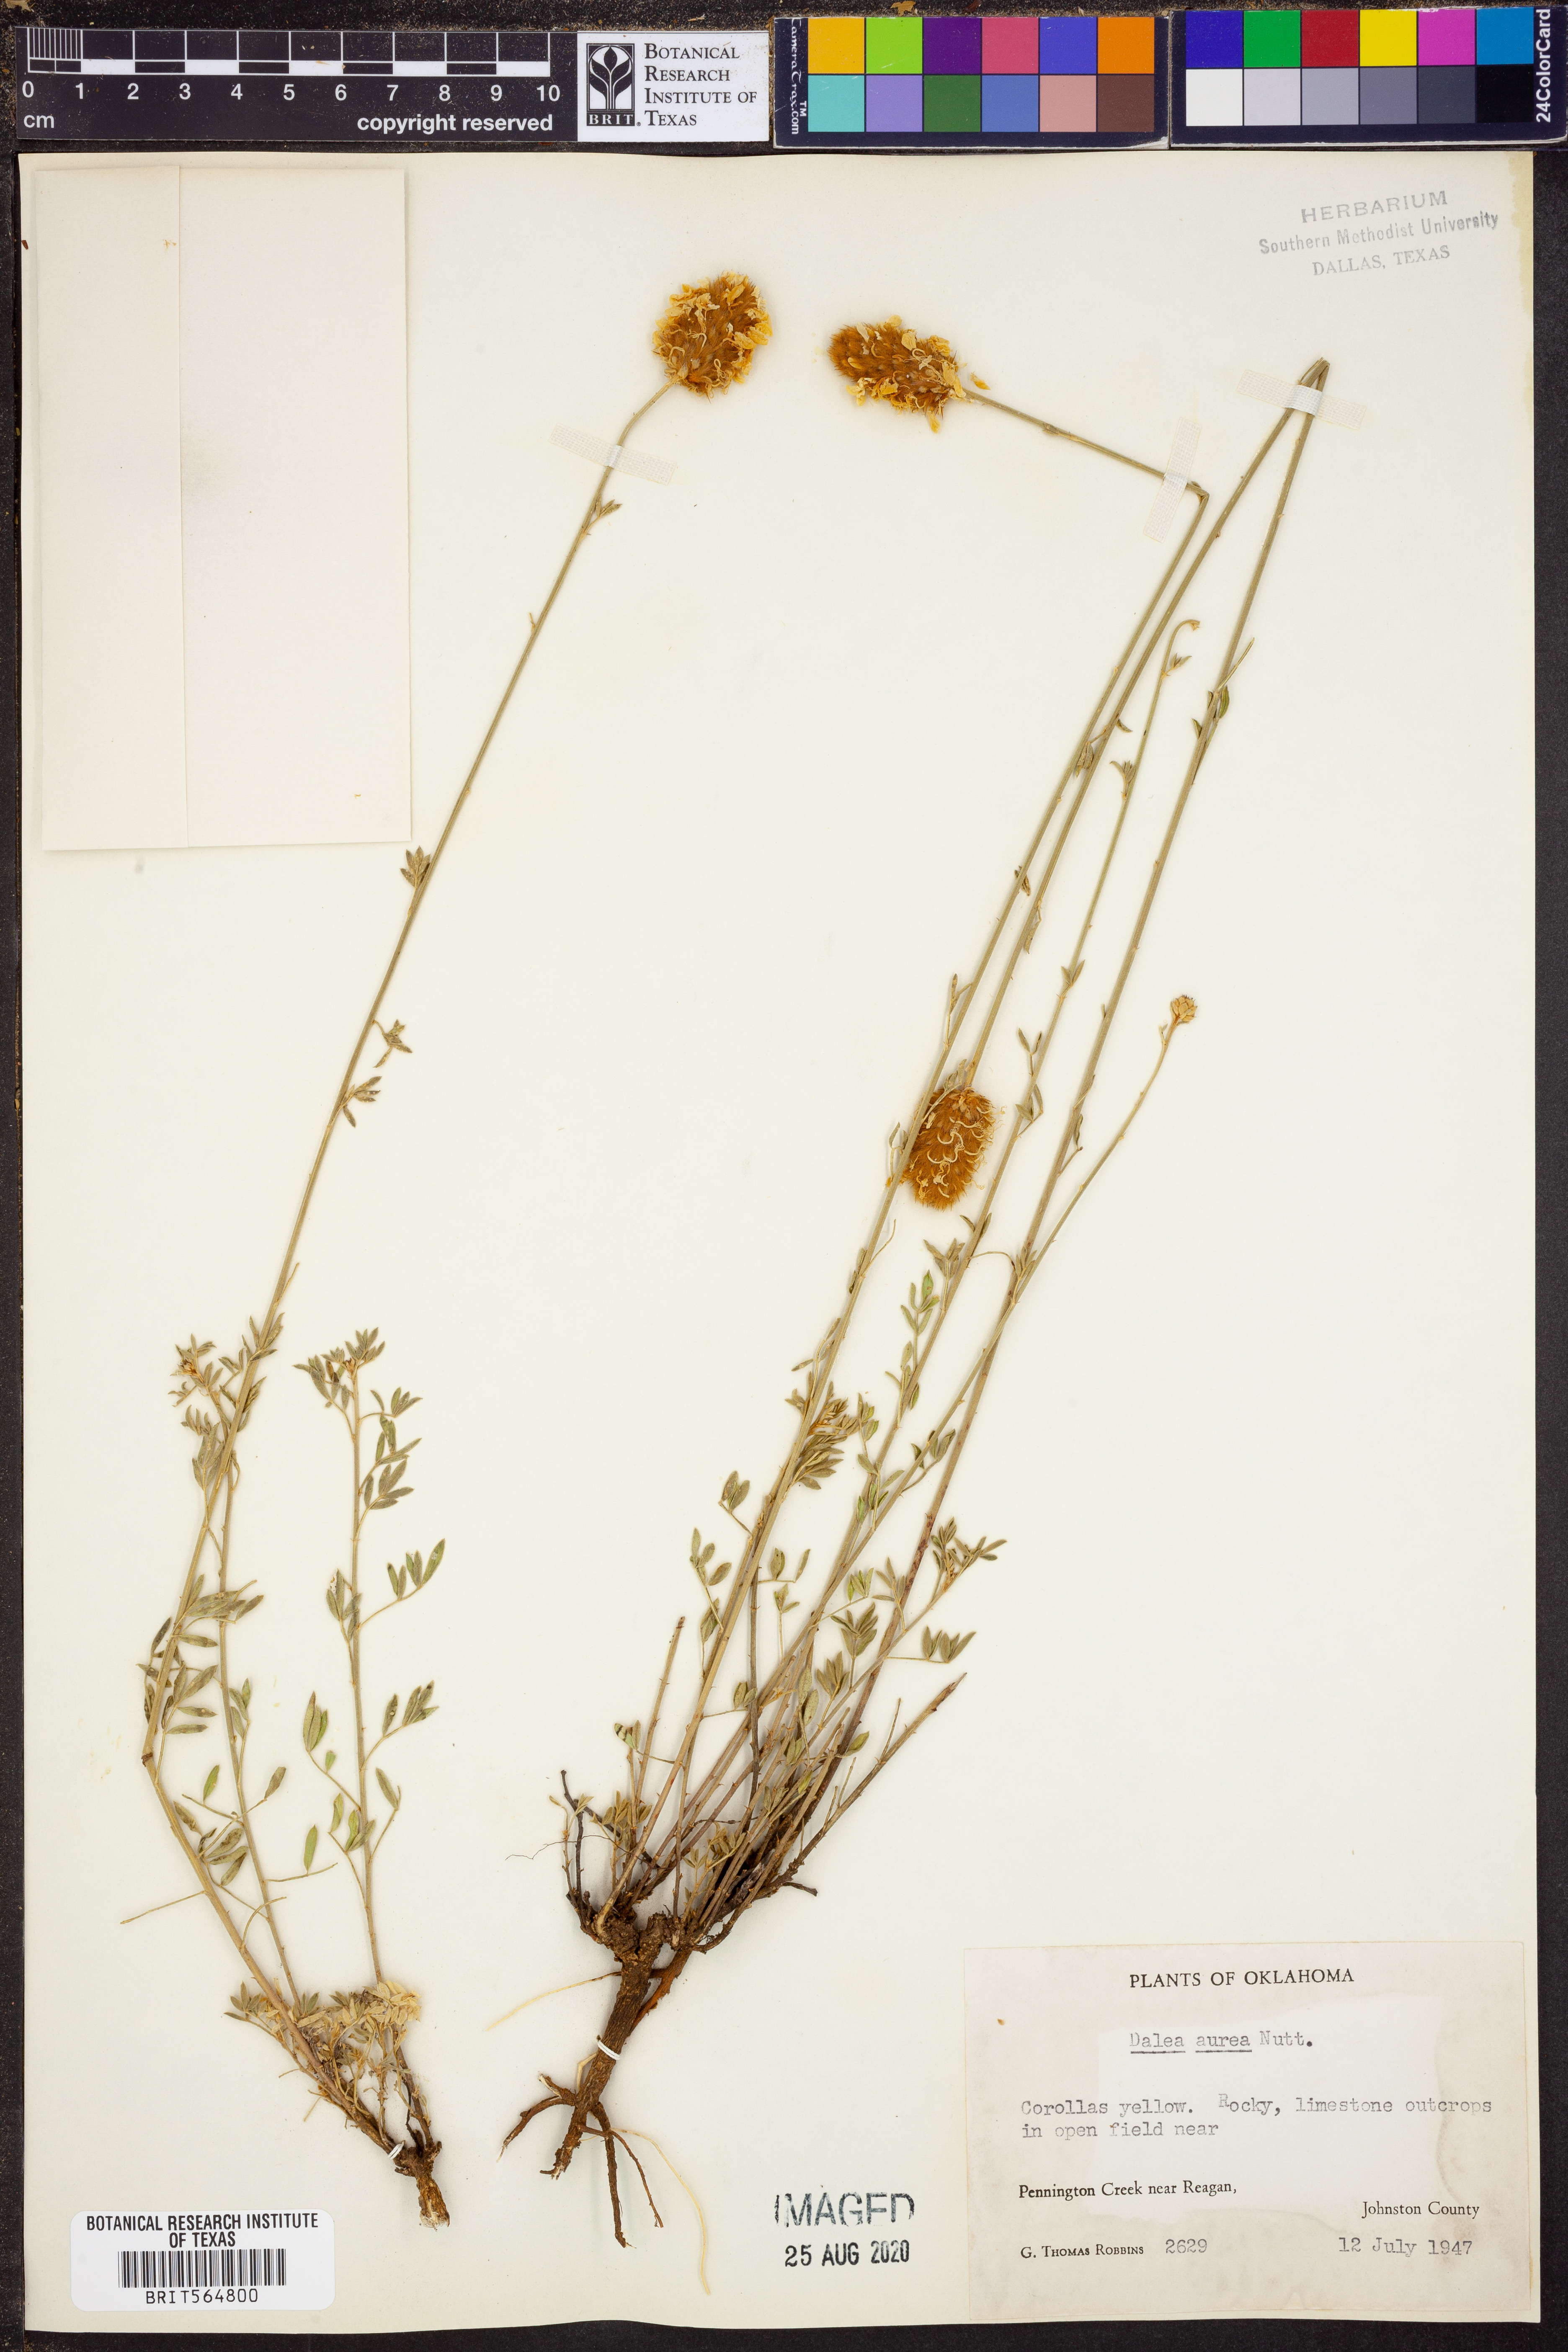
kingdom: Plantae
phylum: Tracheophyta
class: Magnoliopsida
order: Fabales
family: Fabaceae
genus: Dalea
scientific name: Dalea aurea
